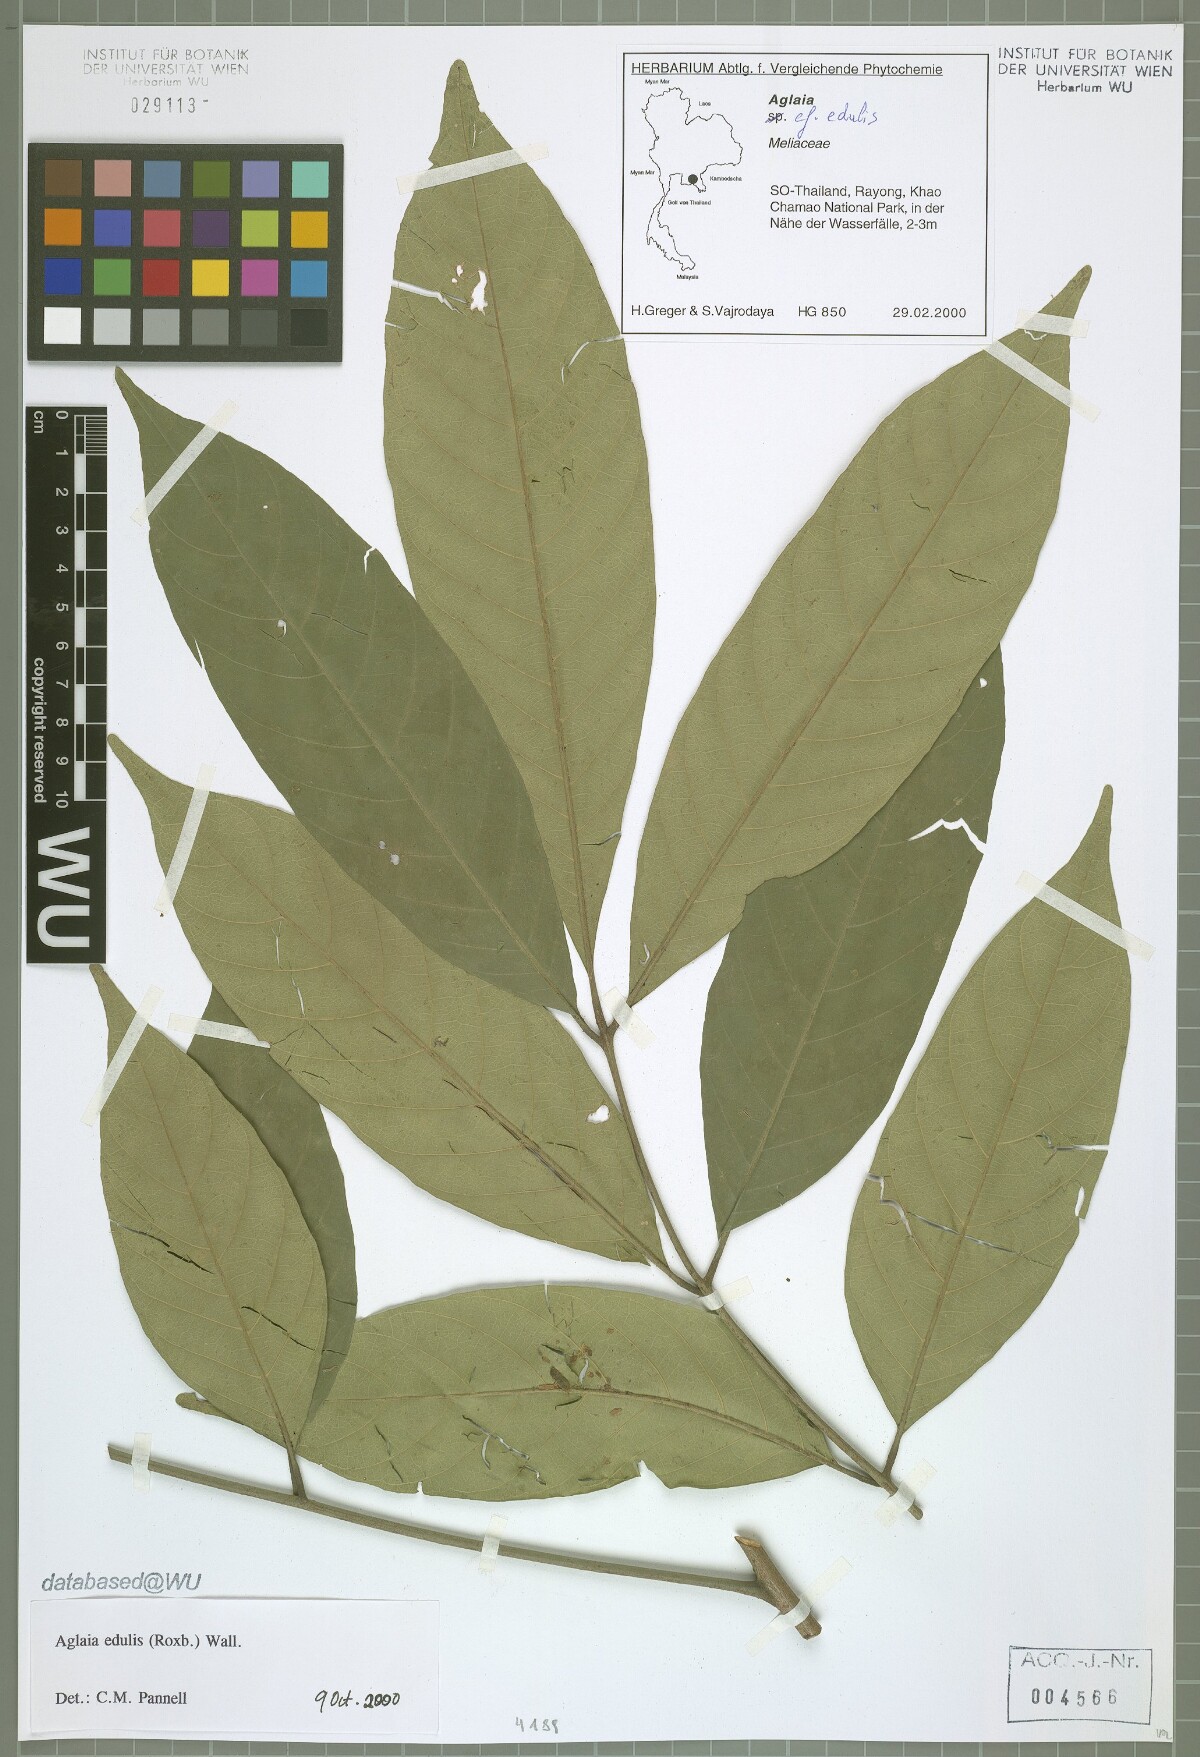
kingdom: Plantae
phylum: Tracheophyta
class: Magnoliopsida
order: Sapindales
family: Meliaceae
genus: Aglaia
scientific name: Aglaia edulis
